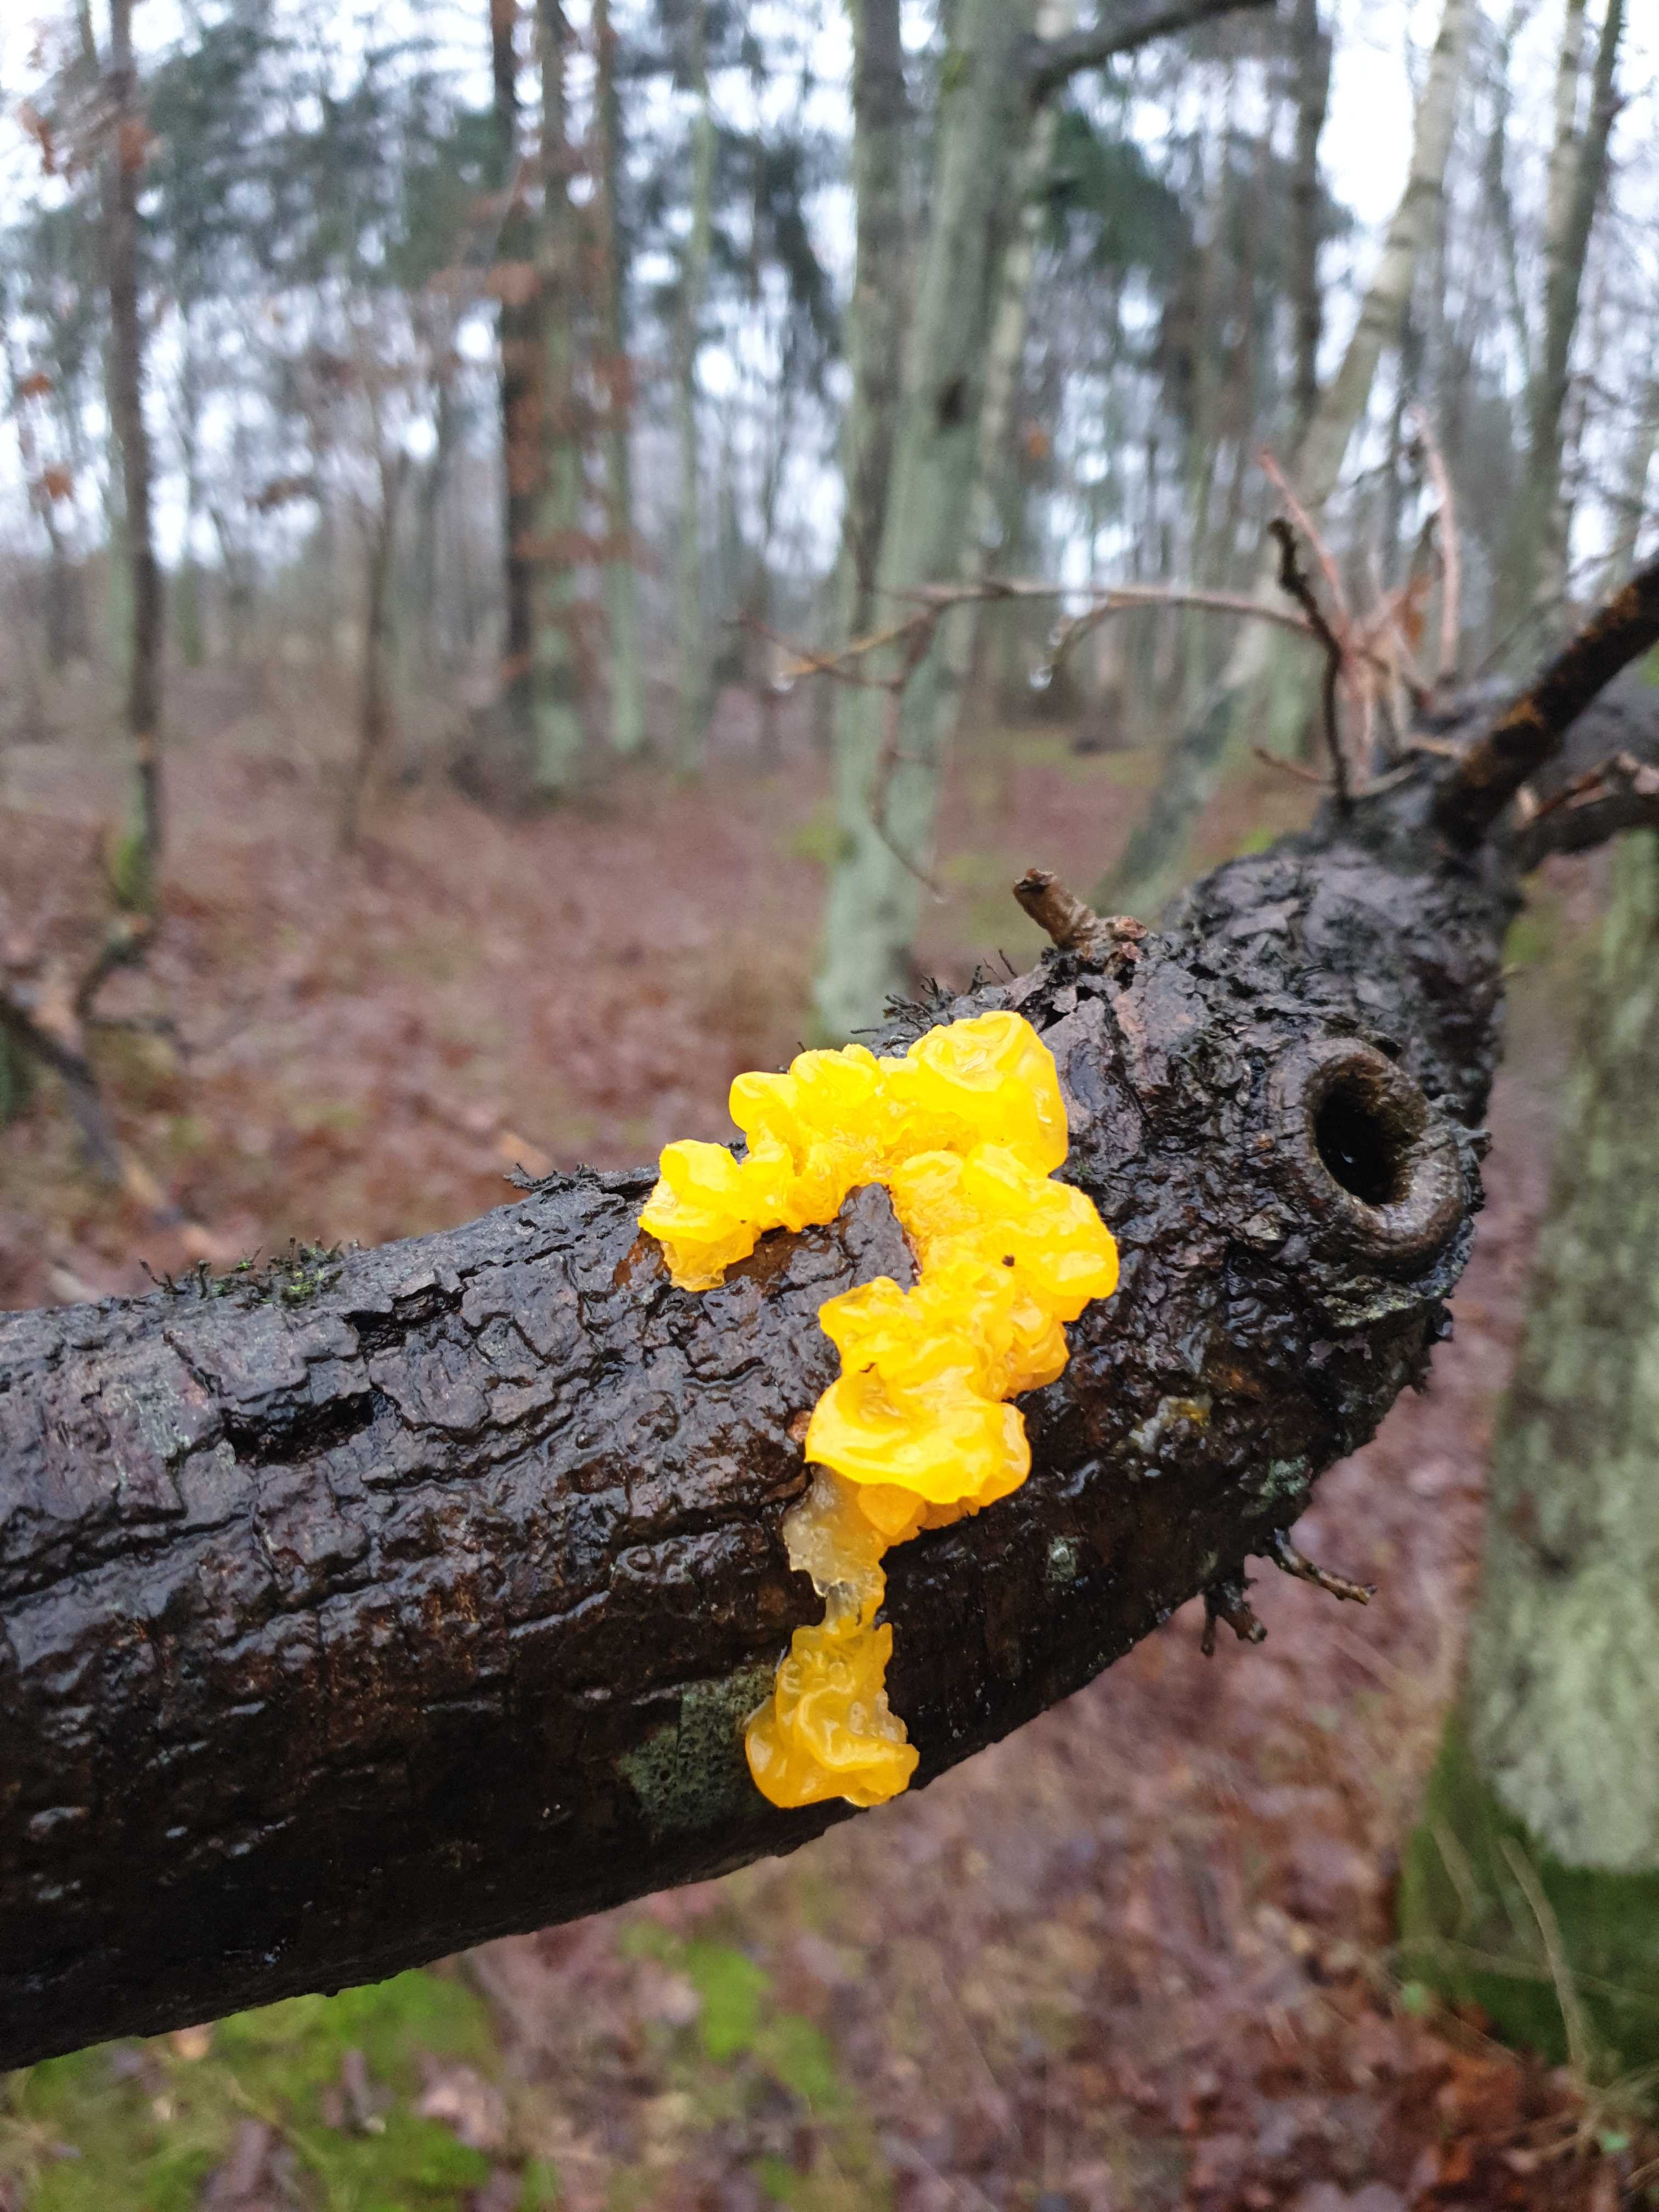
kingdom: Fungi
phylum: Basidiomycota
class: Tremellomycetes
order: Tremellales
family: Tremellaceae
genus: Tremella
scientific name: Tremella mesenterica
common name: gul bævresvamp
